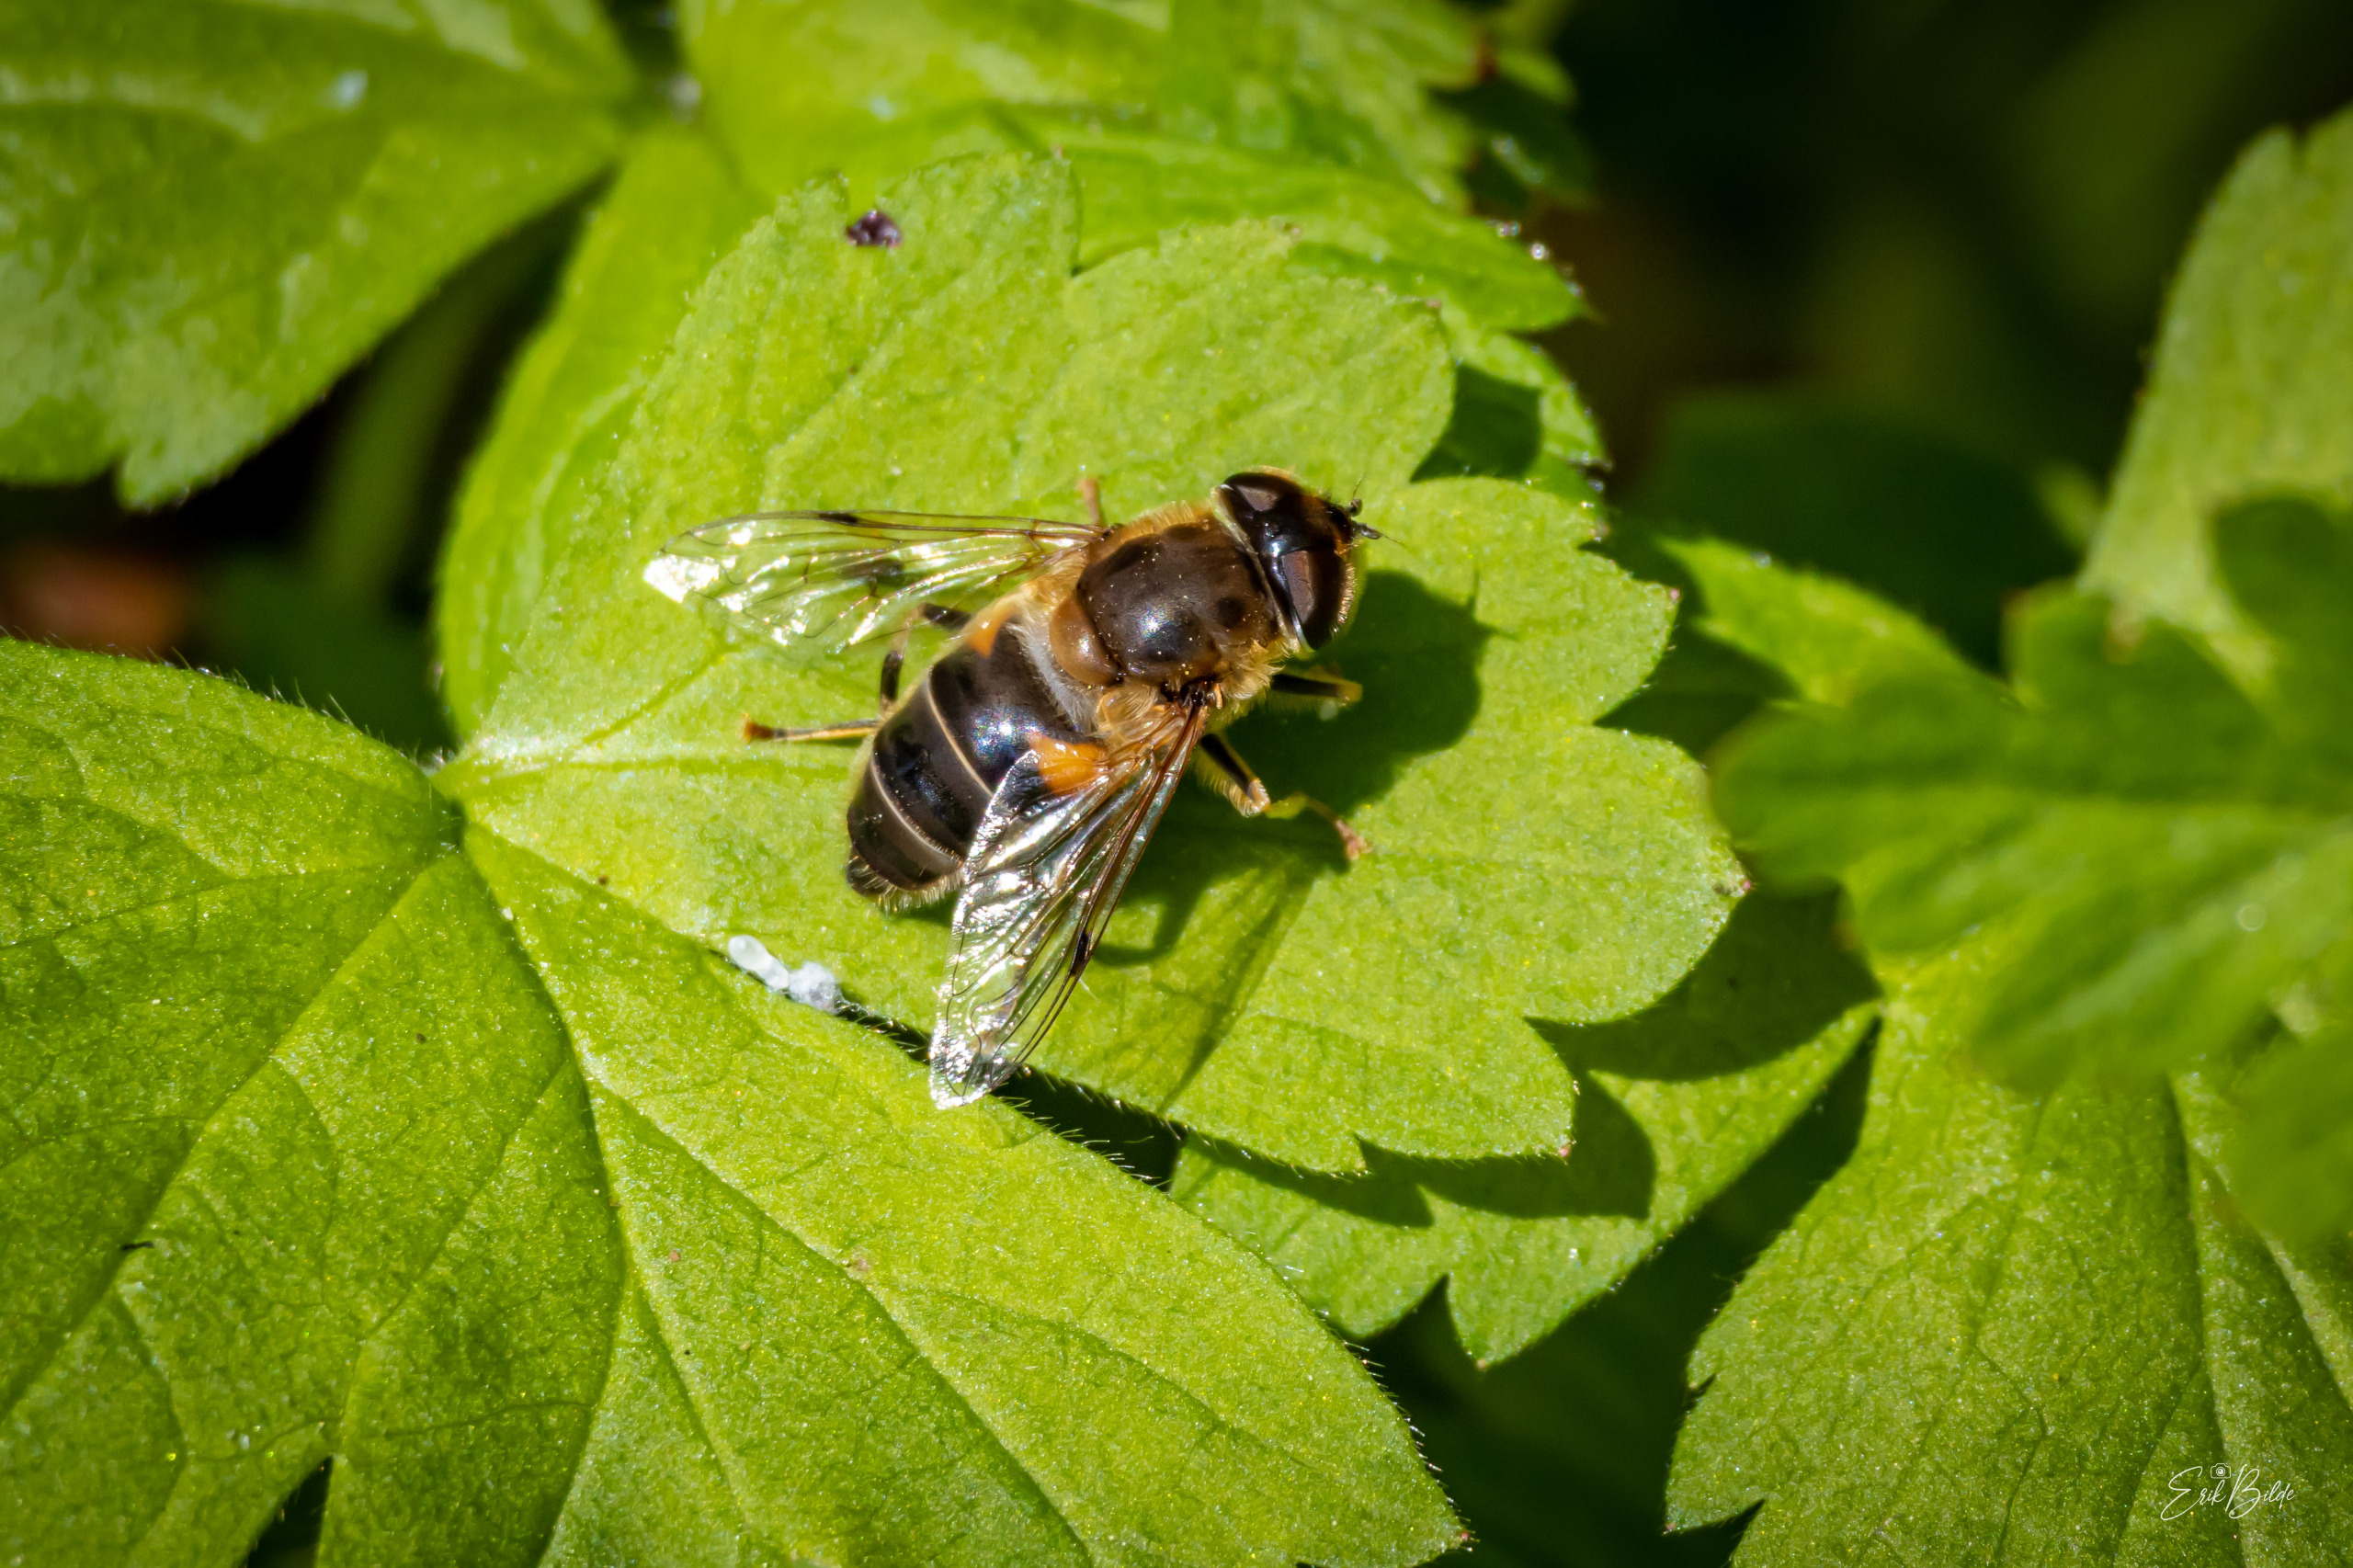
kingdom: Animalia
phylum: Arthropoda
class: Insecta
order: Diptera
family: Syrphidae
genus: Eristalis
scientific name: Eristalis pertinax
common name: Gulfodet dyndflue
